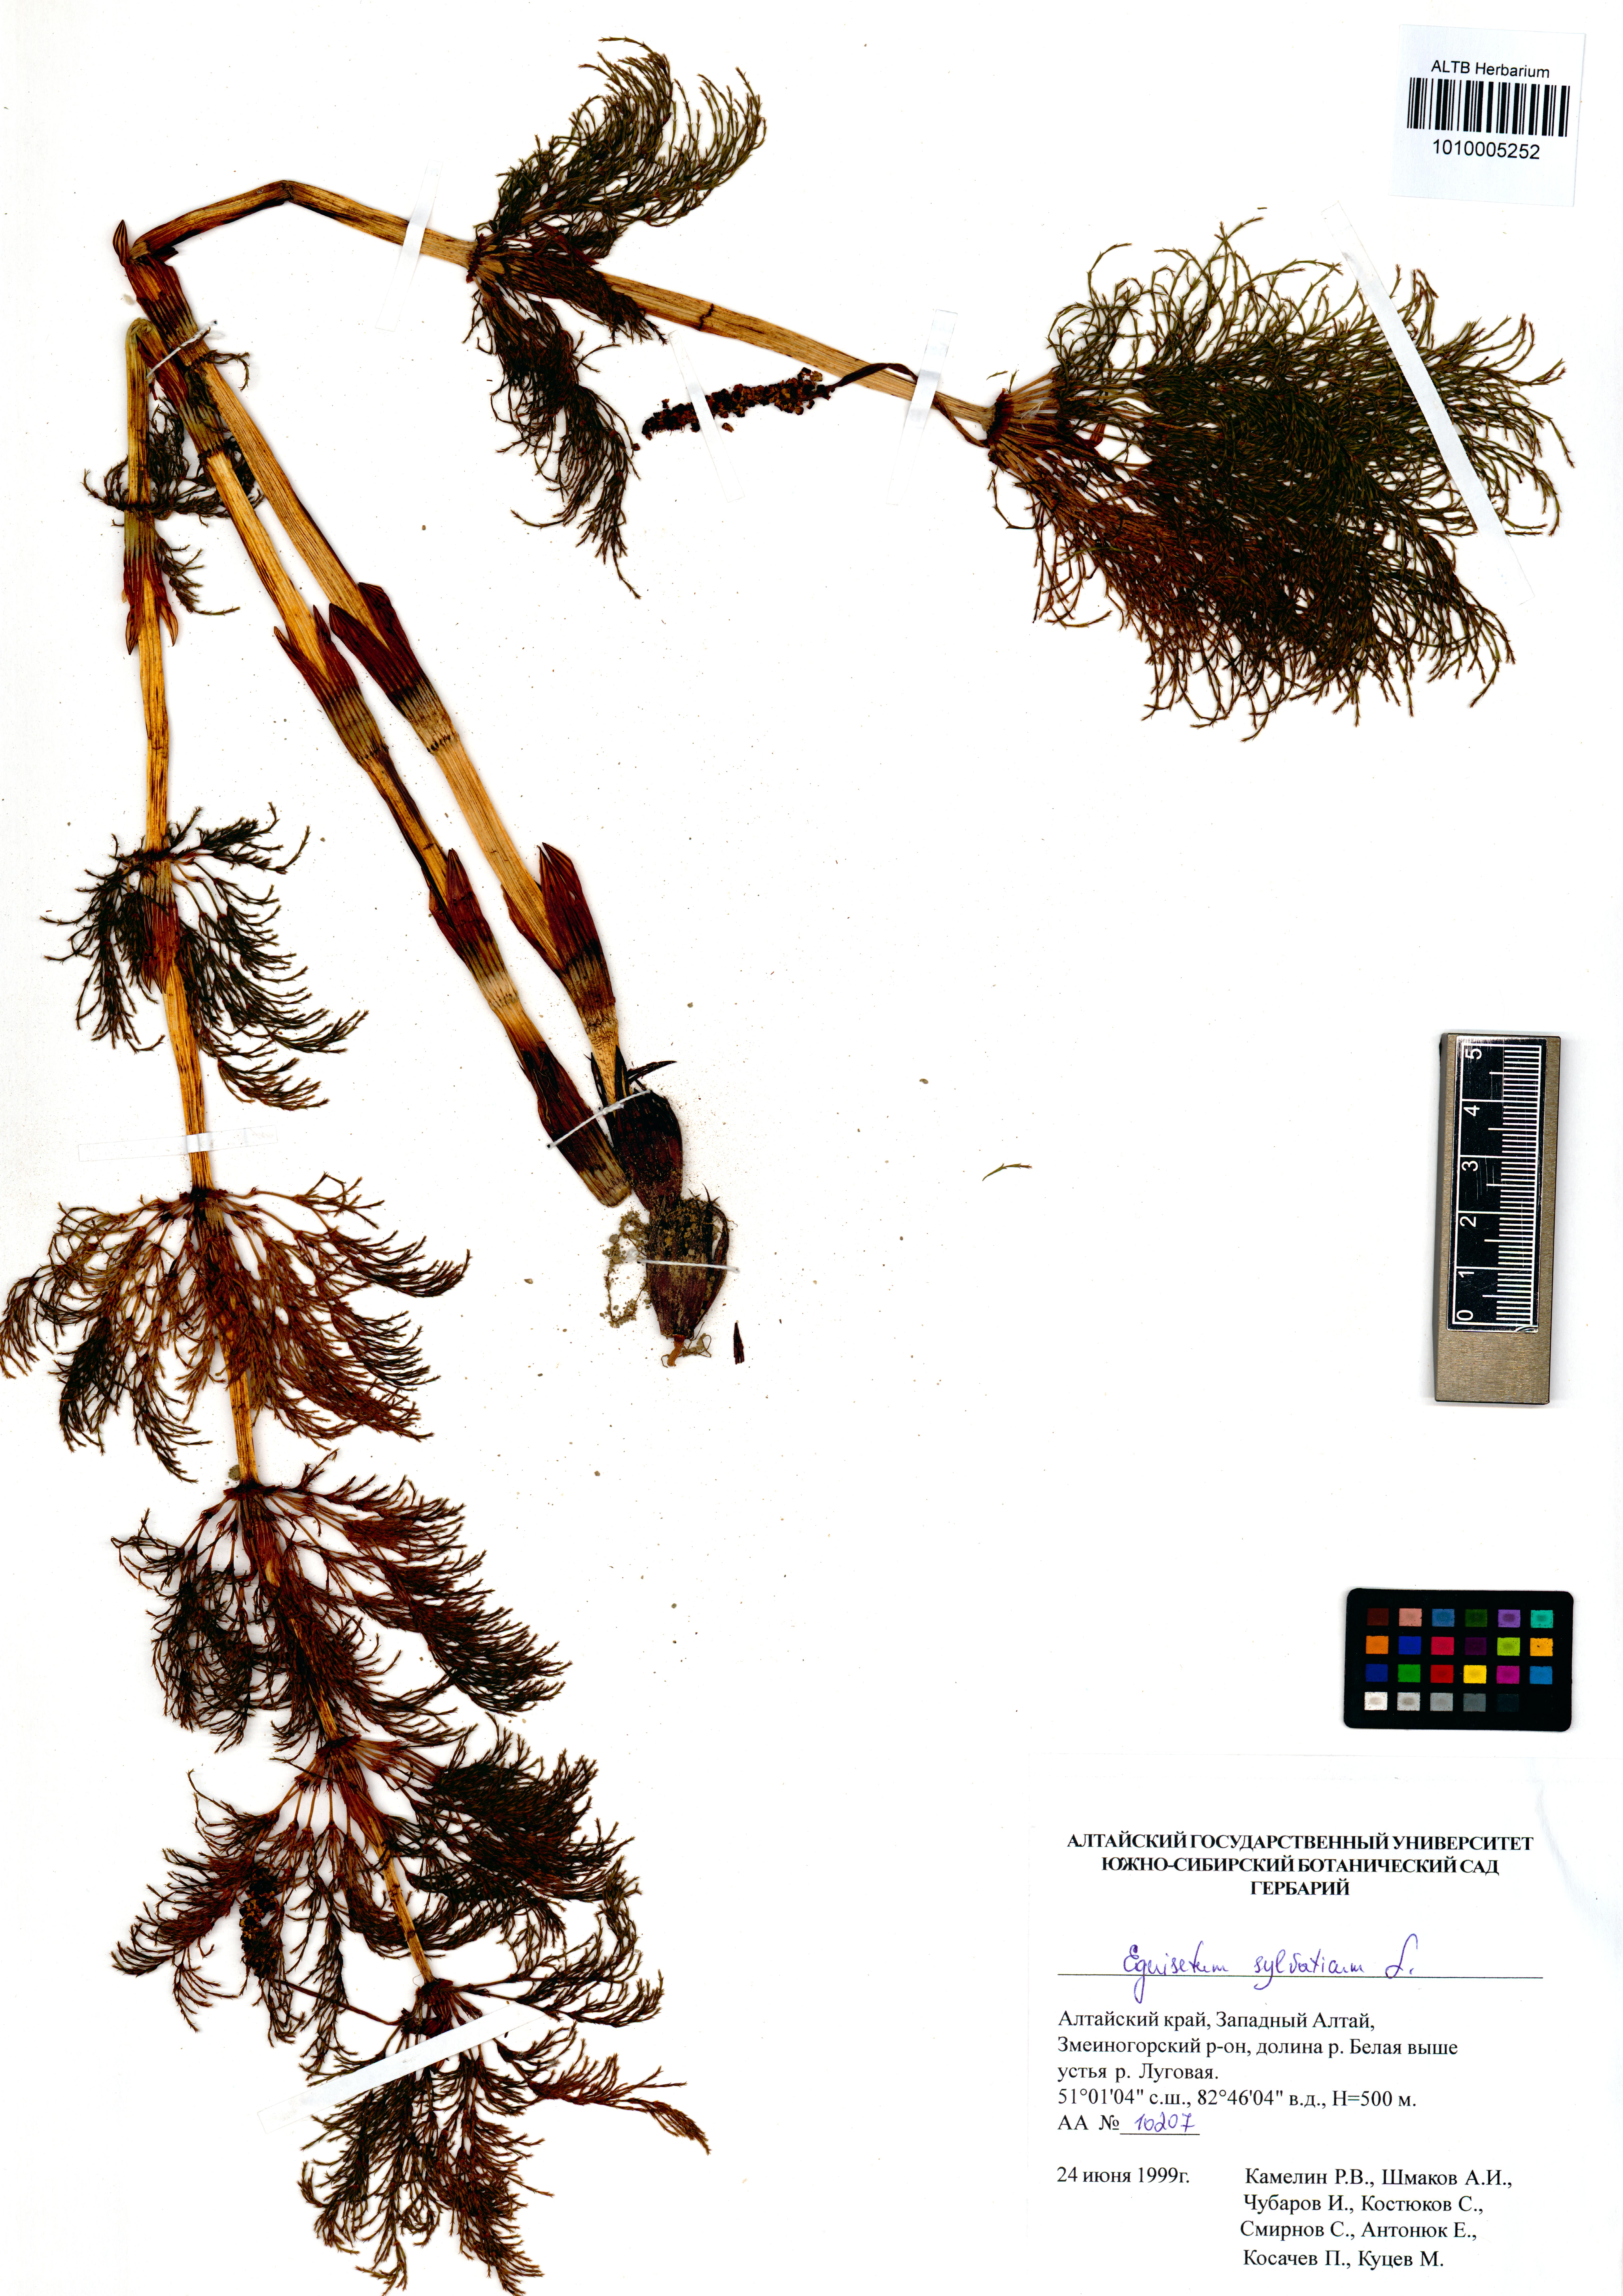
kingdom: Plantae
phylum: Tracheophyta
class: Polypodiopsida
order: Equisetales
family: Equisetaceae
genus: Equisetum
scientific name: Equisetum sylvaticum
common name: Wood horsetail
